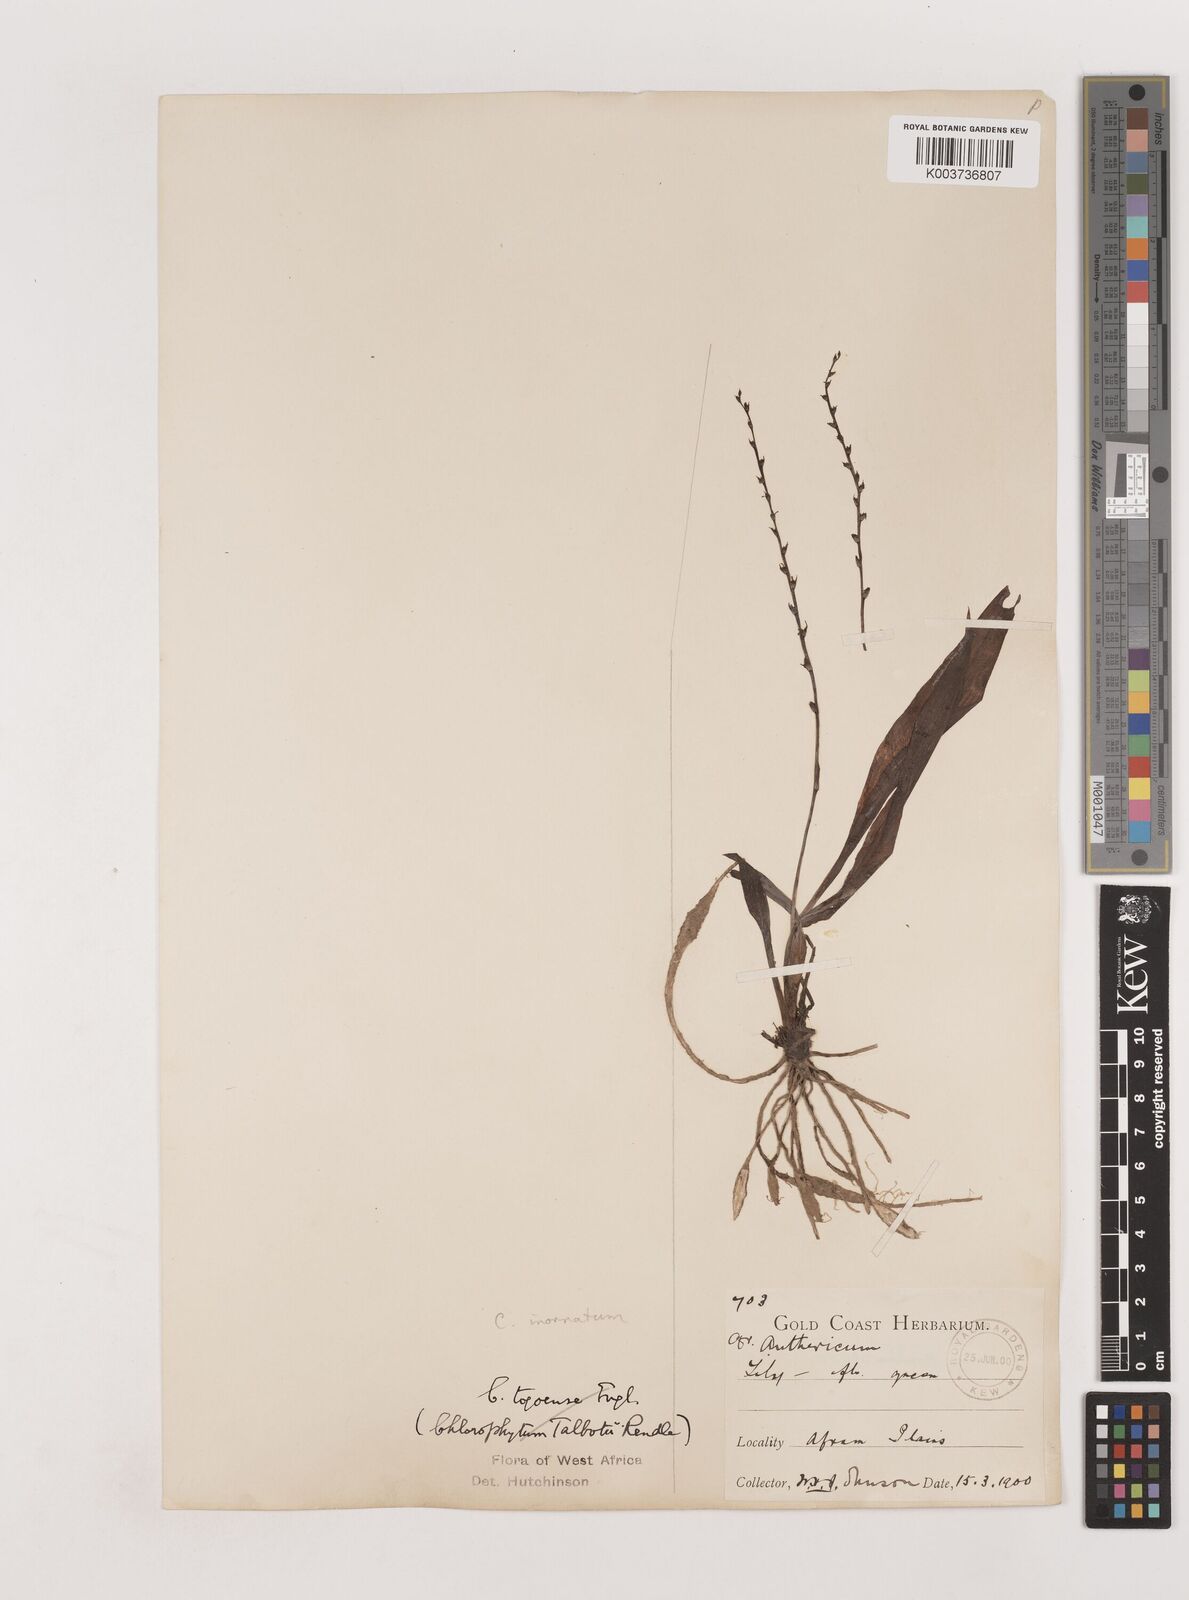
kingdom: Plantae
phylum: Tracheophyta
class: Liliopsida
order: Asparagales
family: Asparagaceae
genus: Chlorophytum
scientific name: Chlorophytum inornatum
